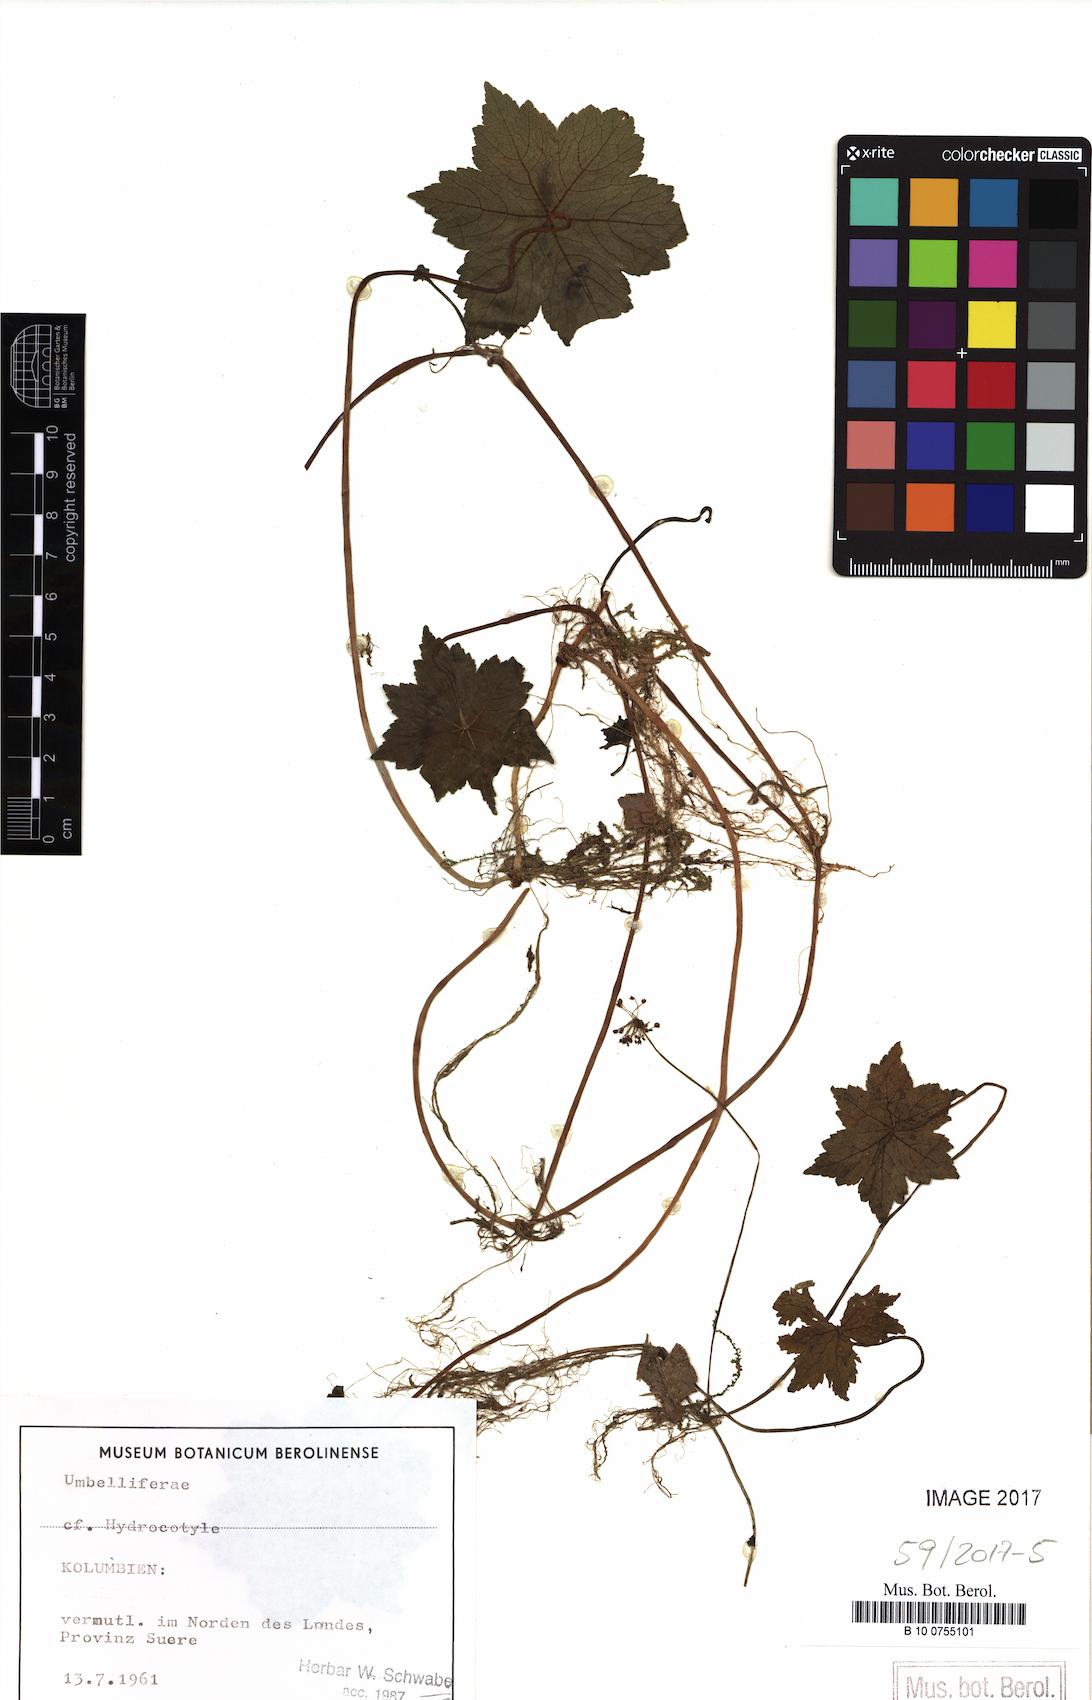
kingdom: Plantae
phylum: Tracheophyta
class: Magnoliopsida
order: Apiales
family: Araliaceae
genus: Hydrocotyle
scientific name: Hydrocotyle
